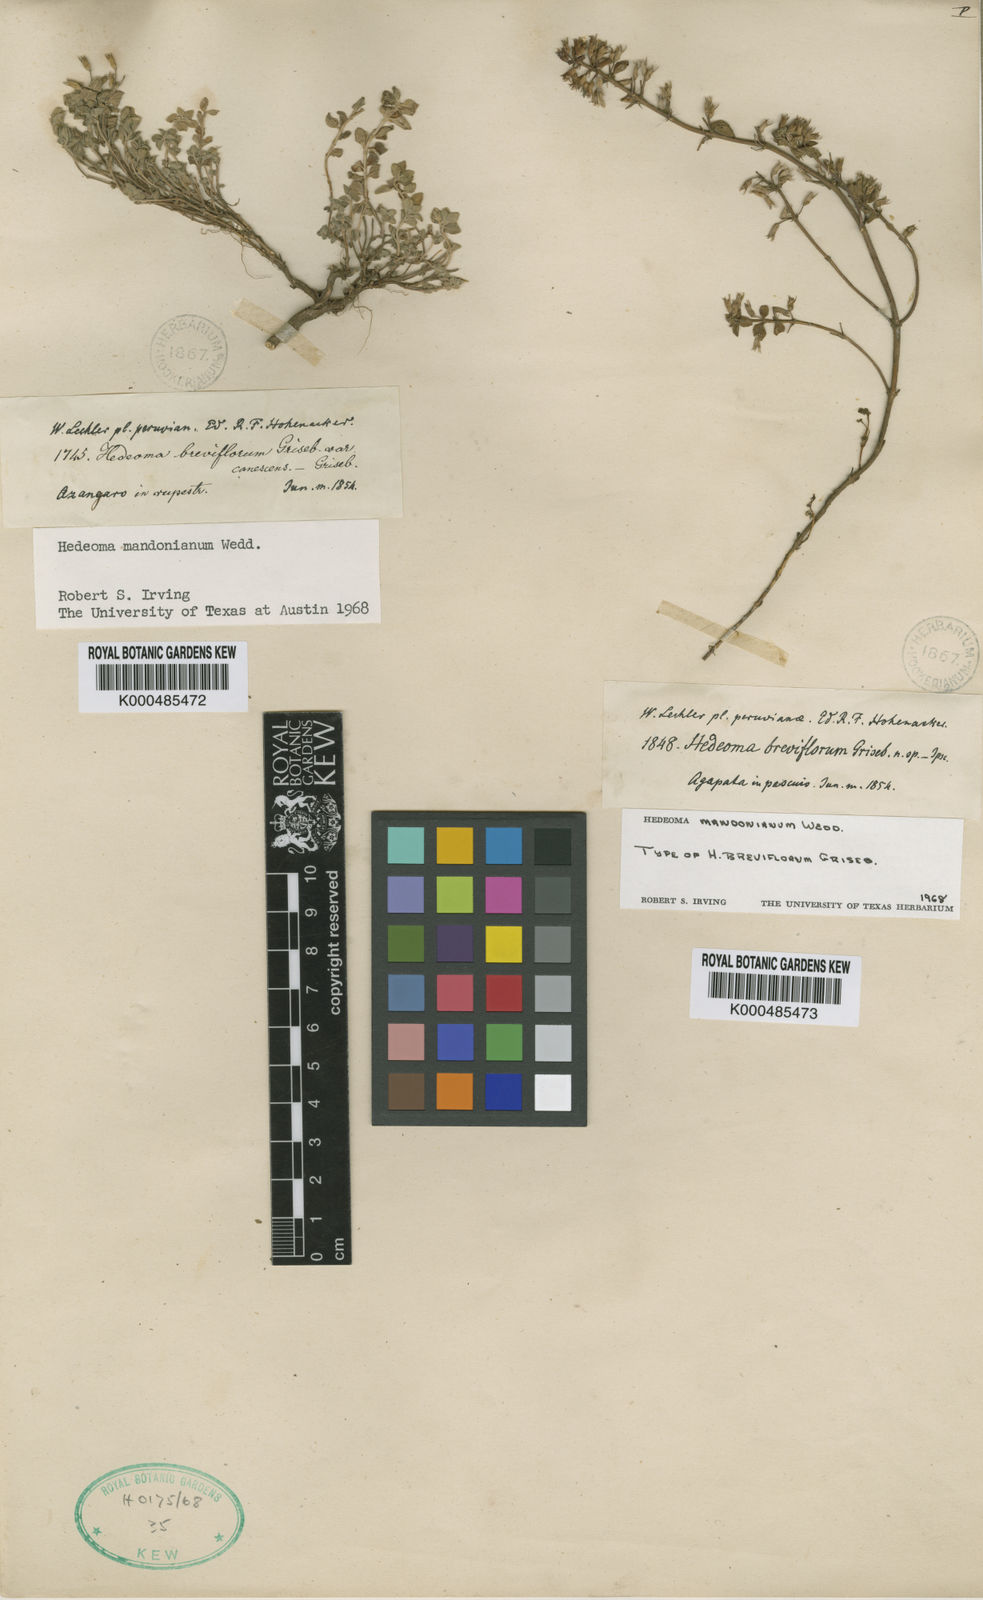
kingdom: Plantae
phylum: Tracheophyta
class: Magnoliopsida
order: Lamiales
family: Lamiaceae
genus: Hedeoma
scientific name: Hedeoma mandoniana
